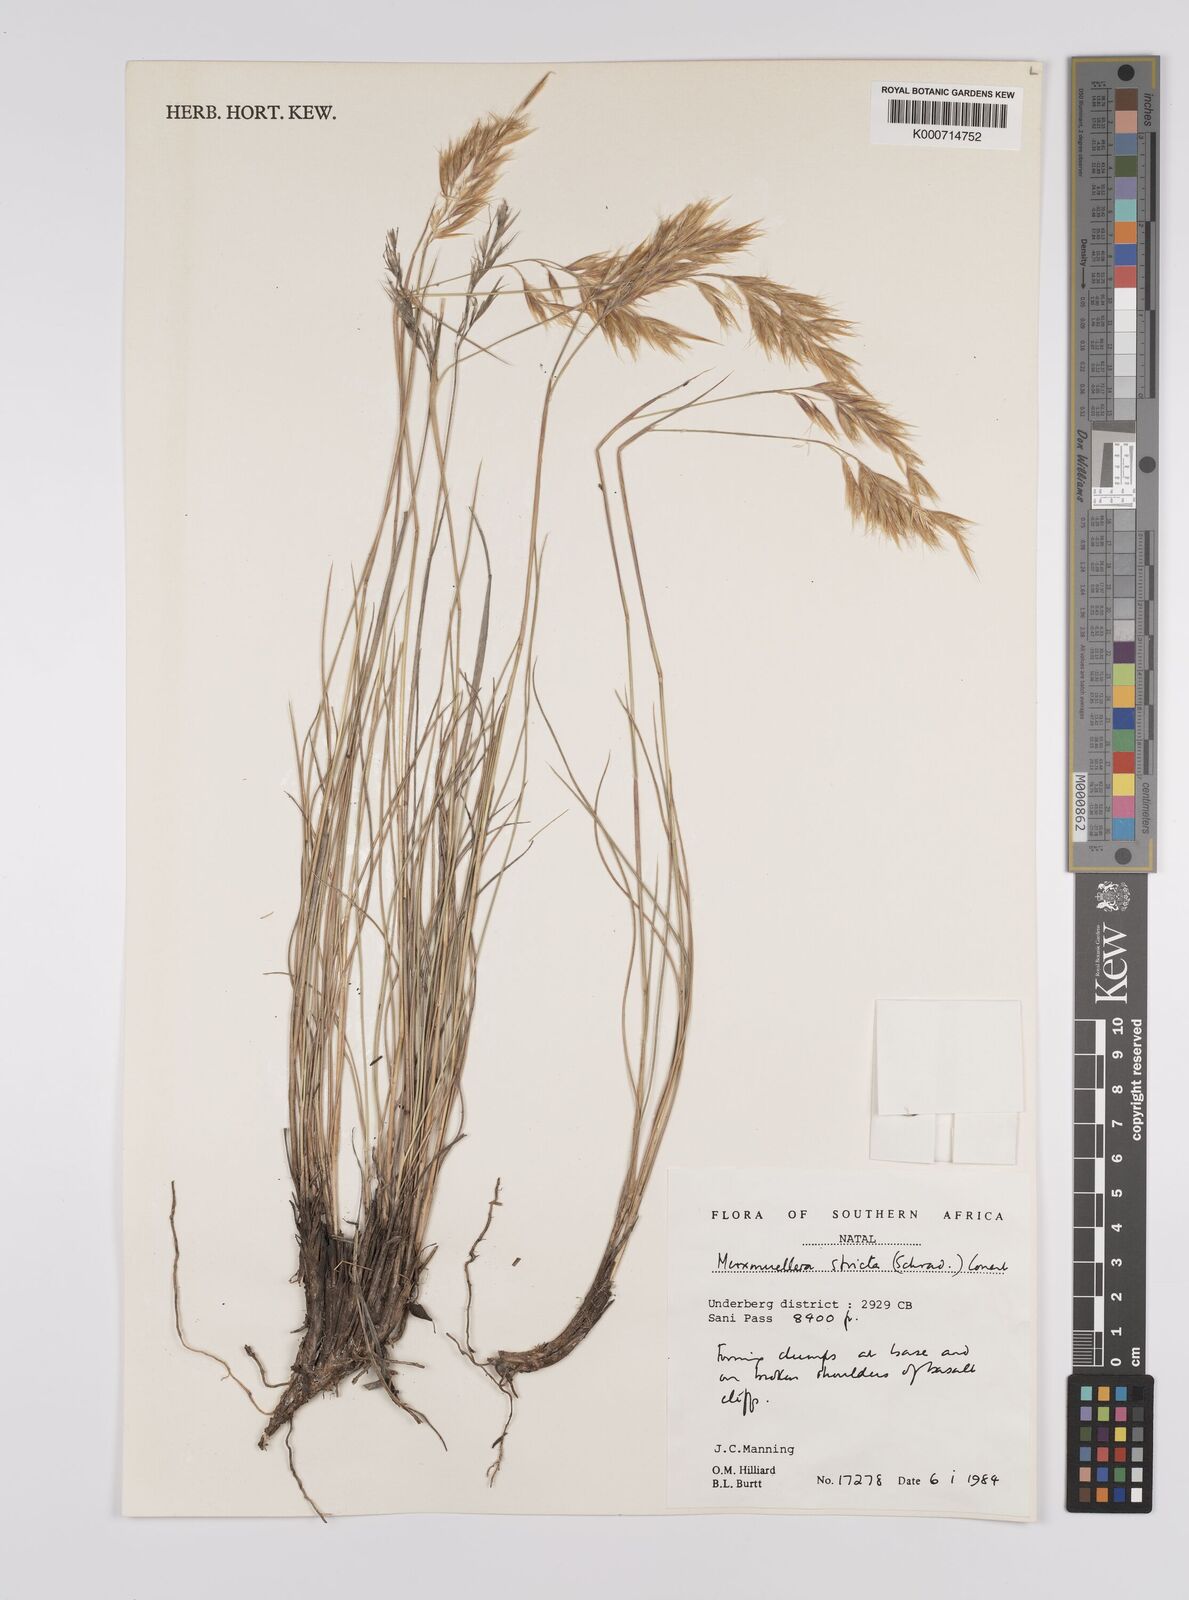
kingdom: Plantae
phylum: Tracheophyta
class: Liliopsida
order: Poales
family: Poaceae
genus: Rytidosperma
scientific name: Rytidosperma
